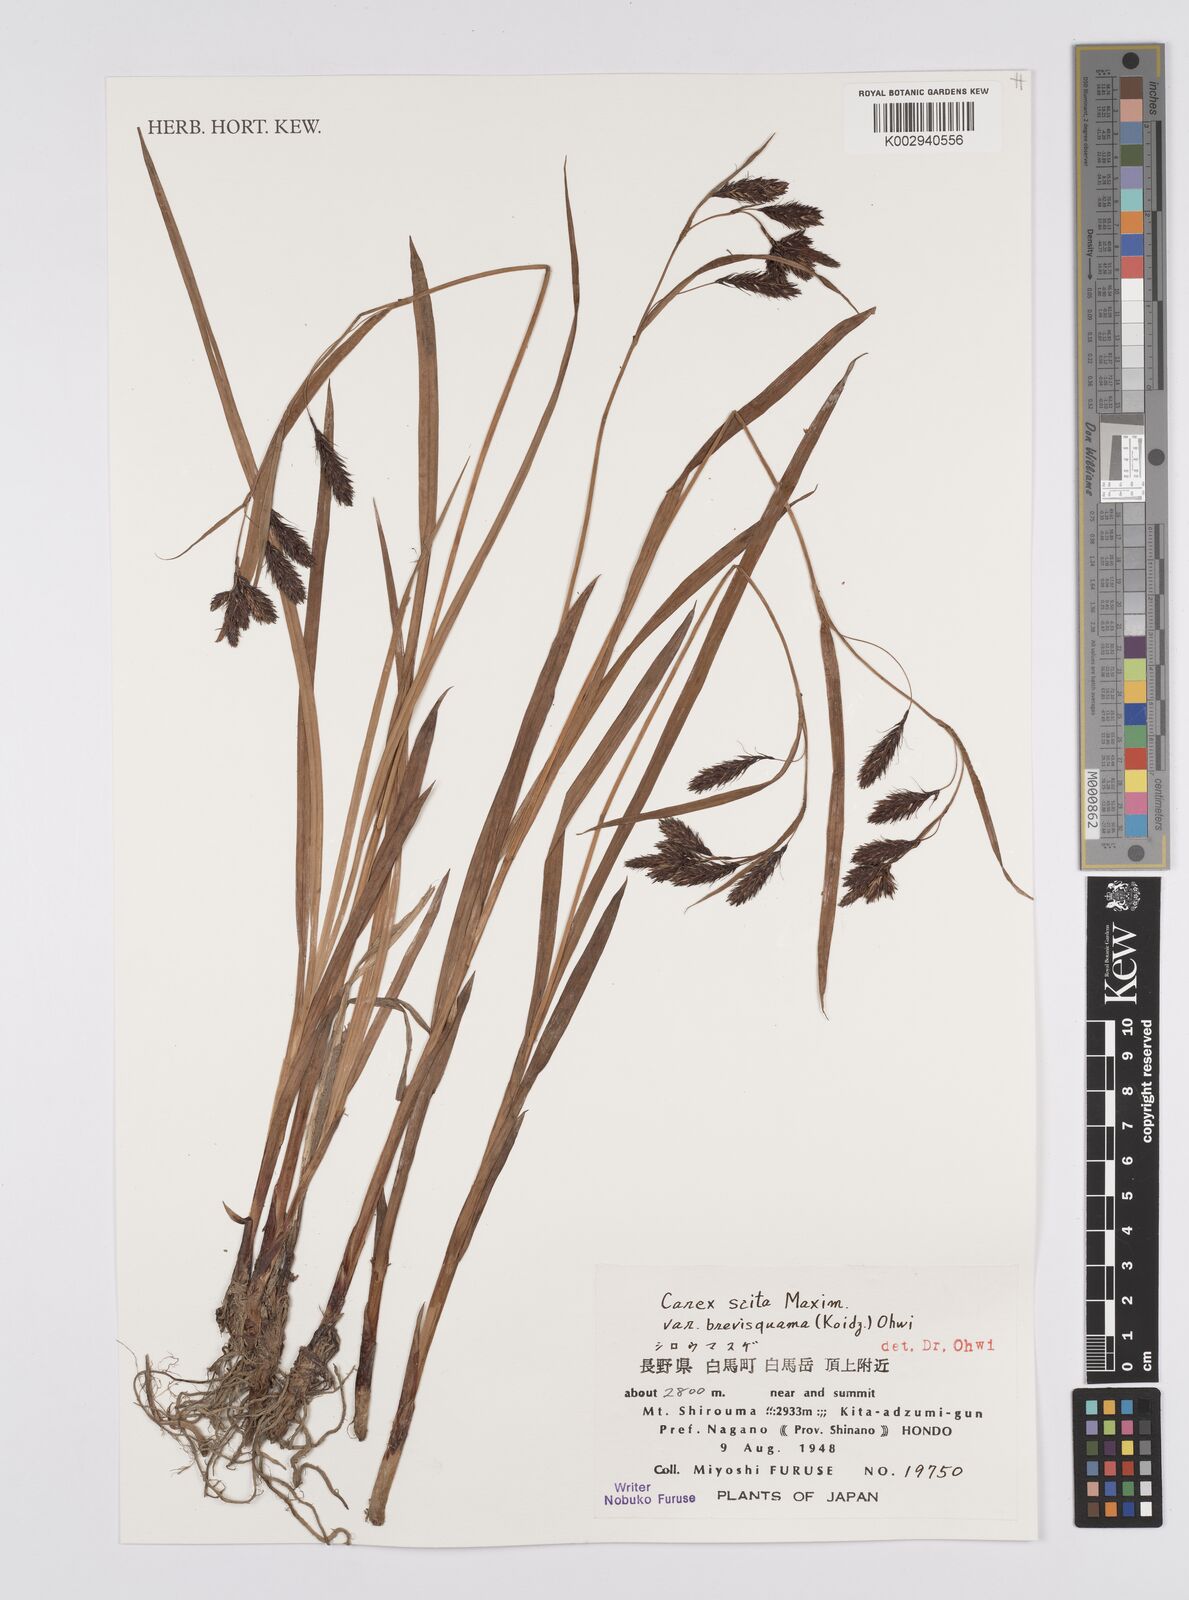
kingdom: Plantae
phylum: Tracheophyta
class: Liliopsida
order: Poales
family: Cyperaceae
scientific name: Cyperaceae
